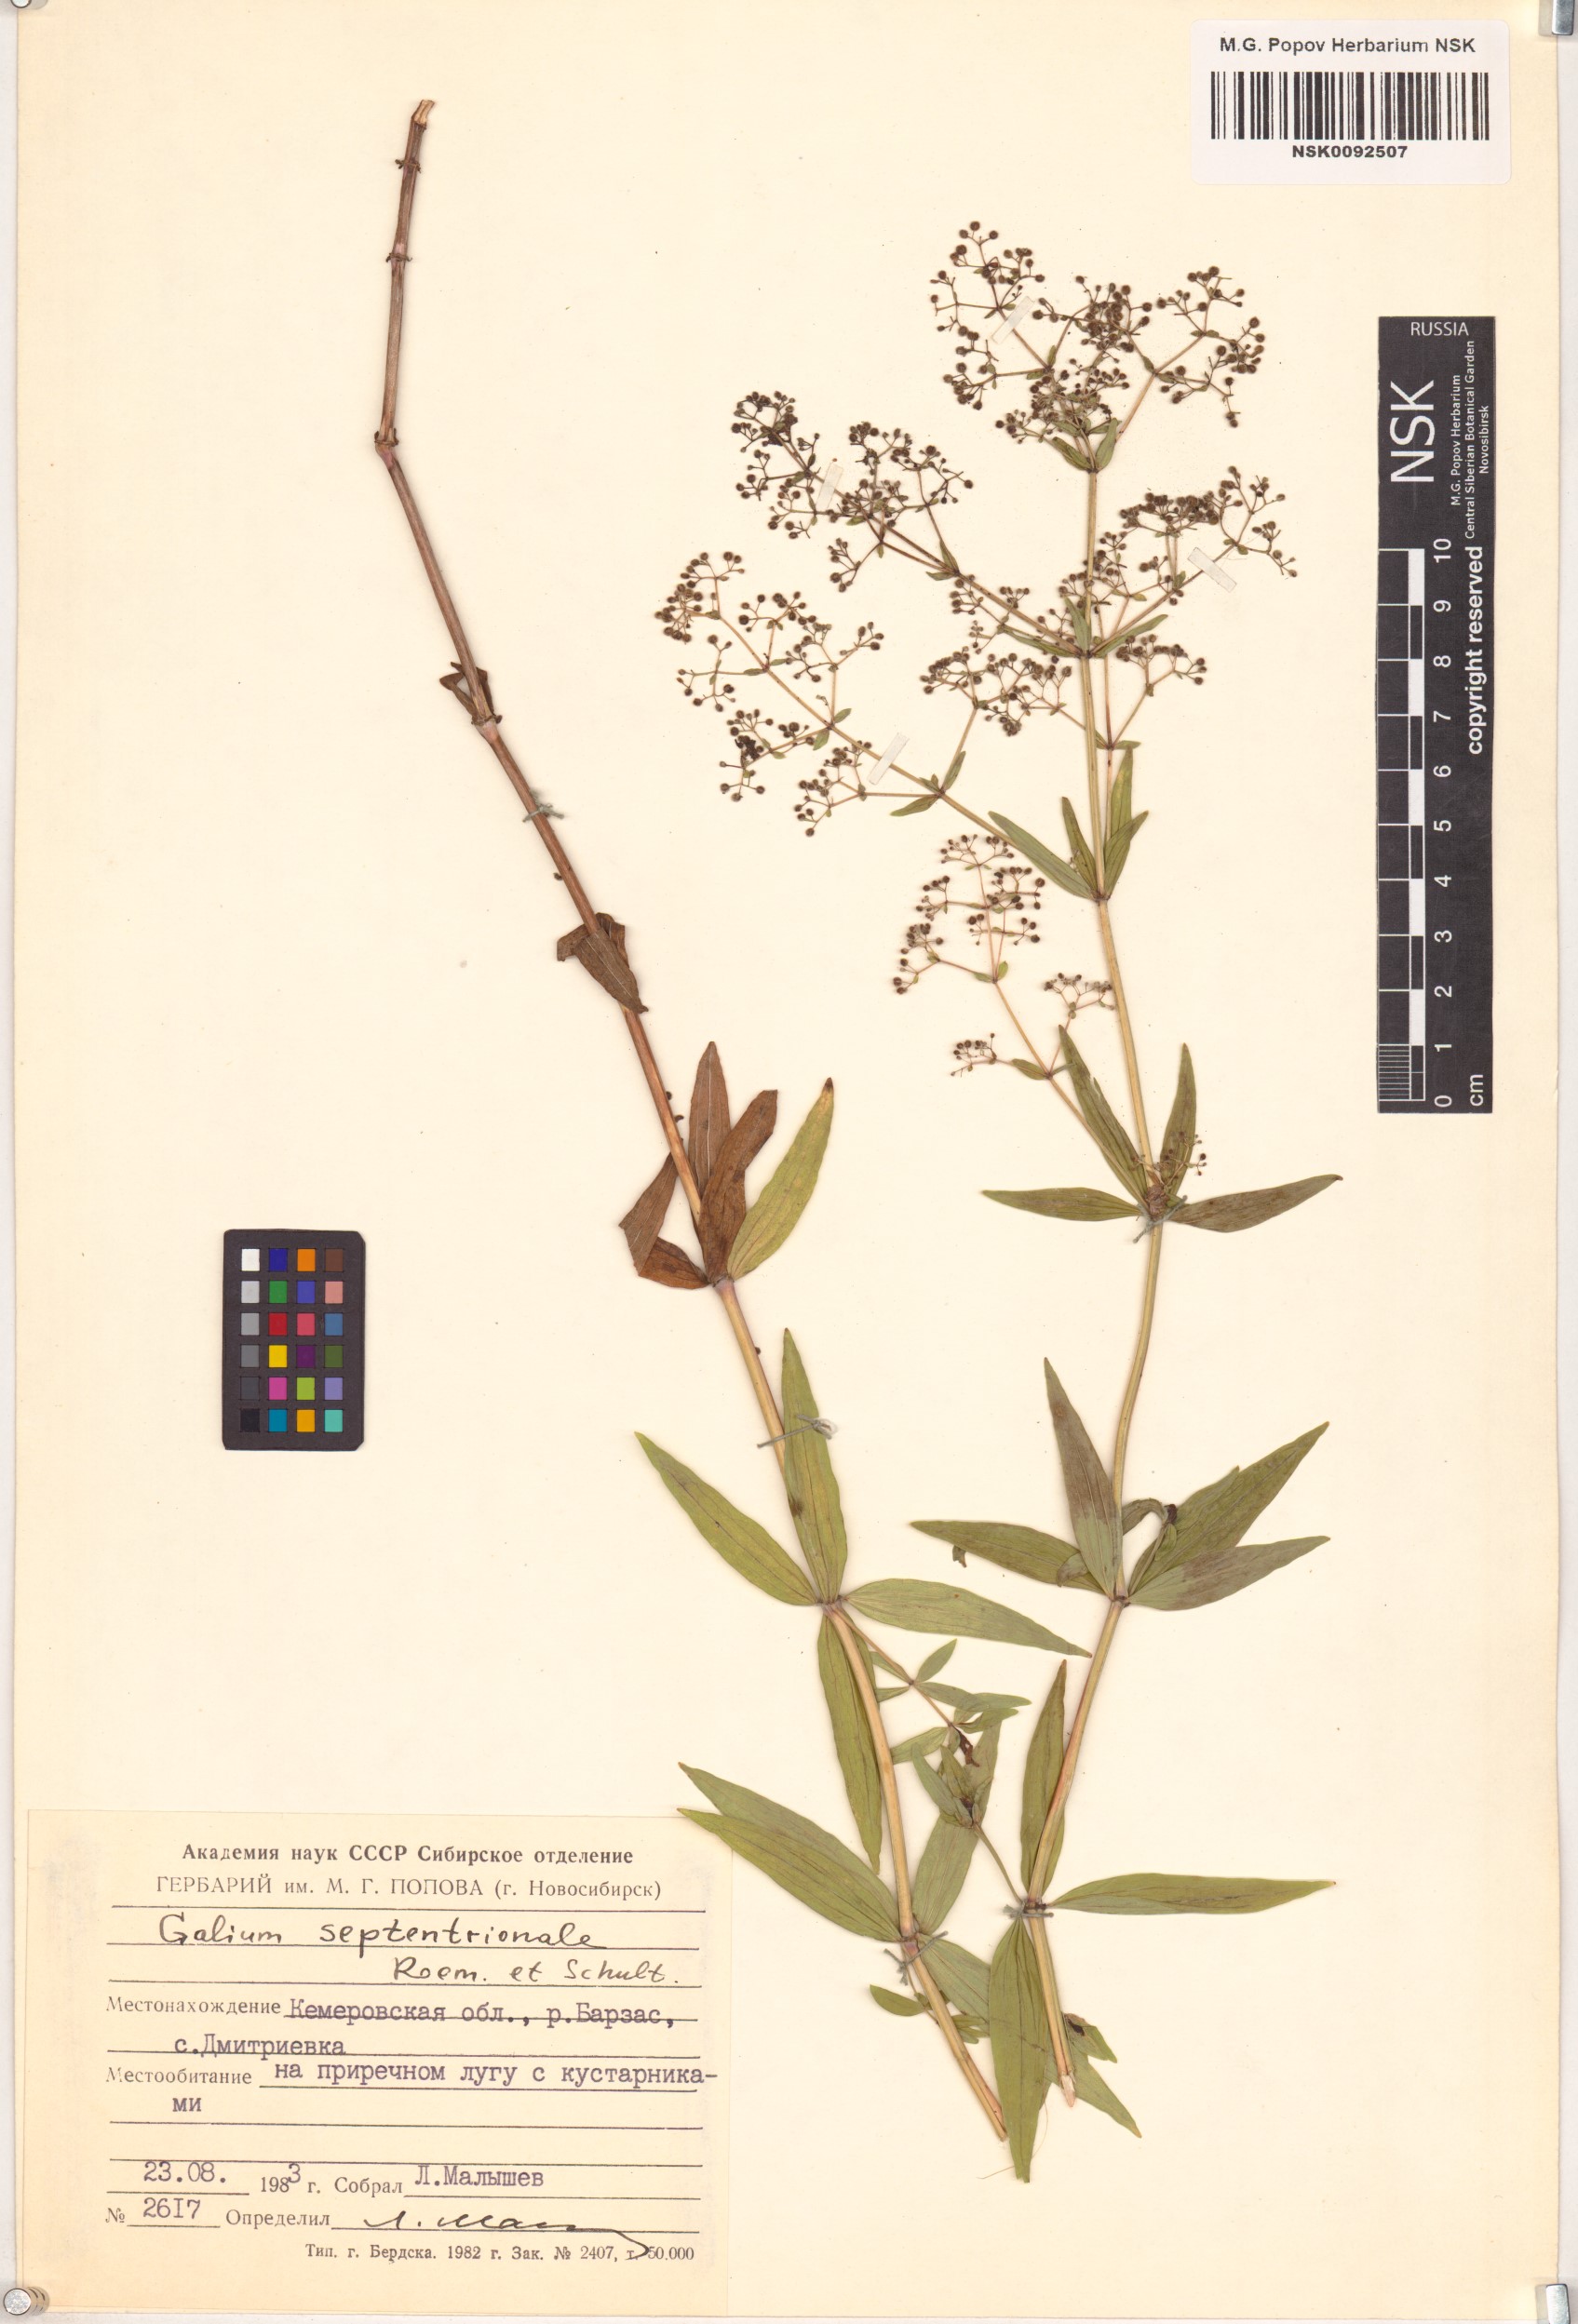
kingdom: Plantae
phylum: Tracheophyta
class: Magnoliopsida
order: Gentianales
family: Rubiaceae
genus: Galium
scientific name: Galium boreale
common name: Northern bedstraw
